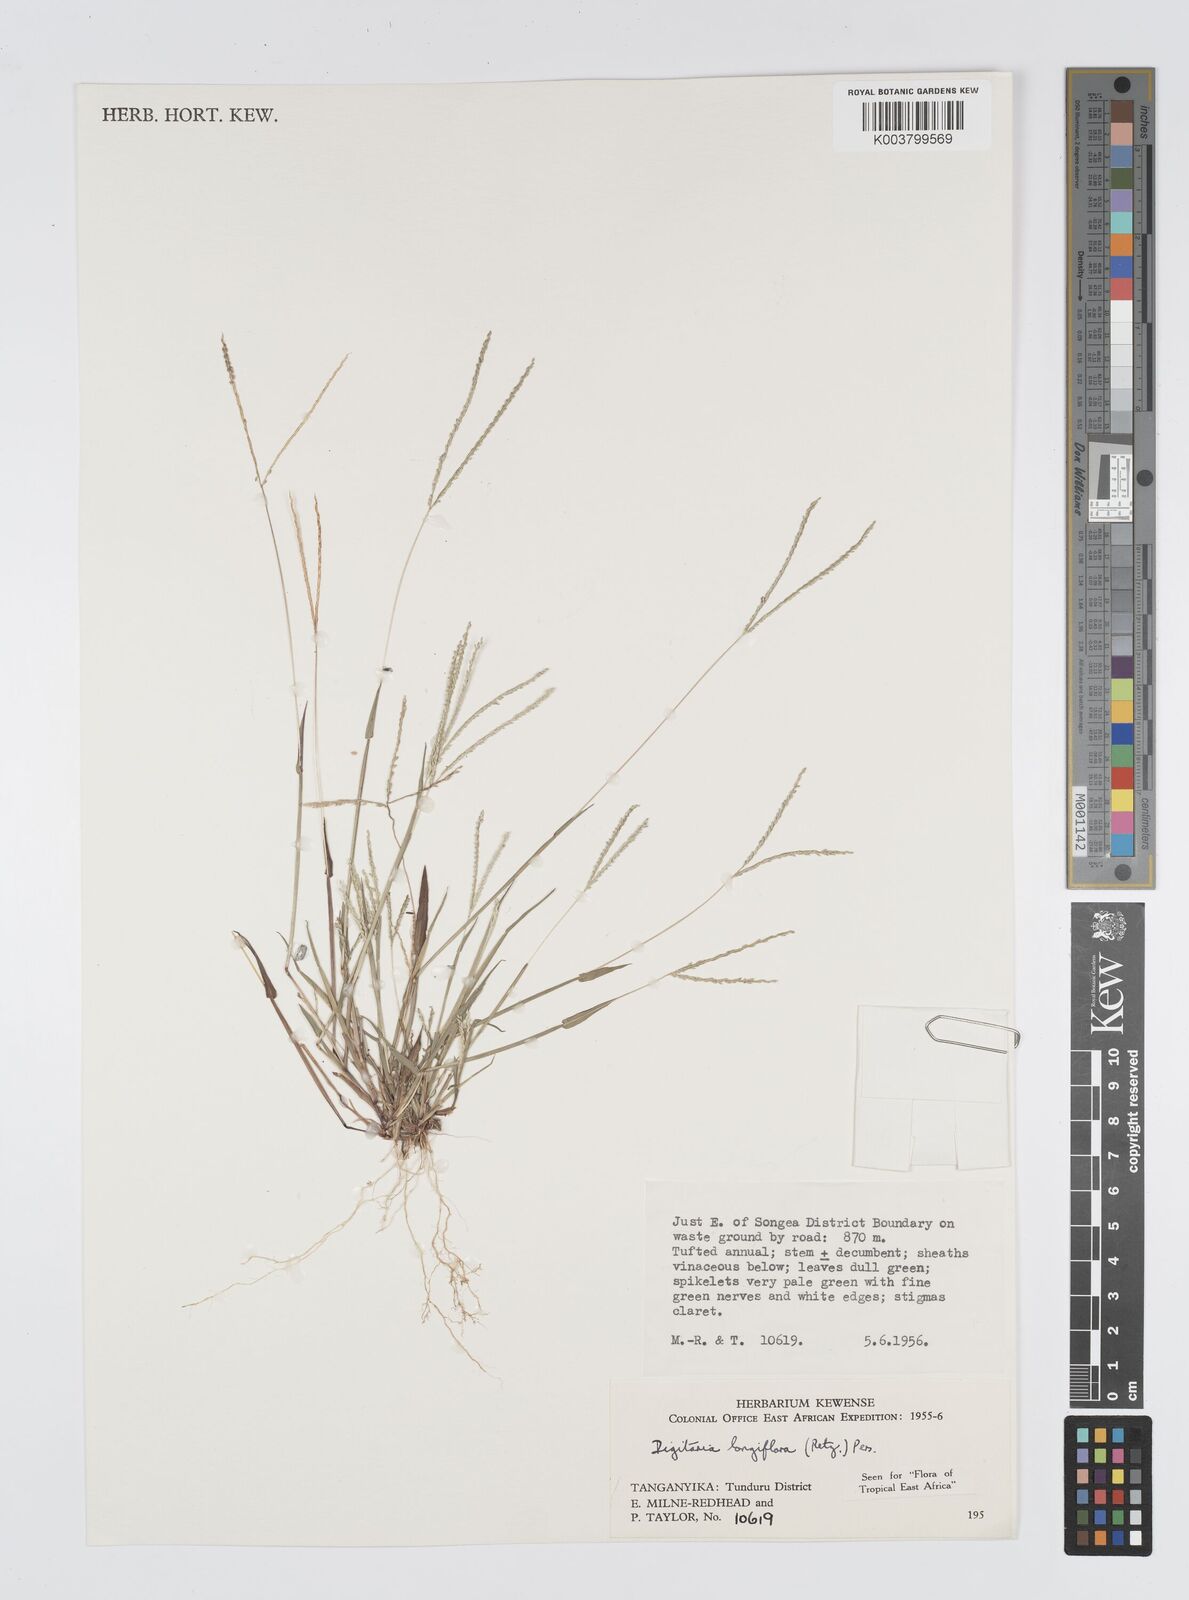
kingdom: Plantae
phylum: Tracheophyta
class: Liliopsida
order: Poales
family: Poaceae
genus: Digitaria
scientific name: Digitaria longiflora
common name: Wire crabgrass
